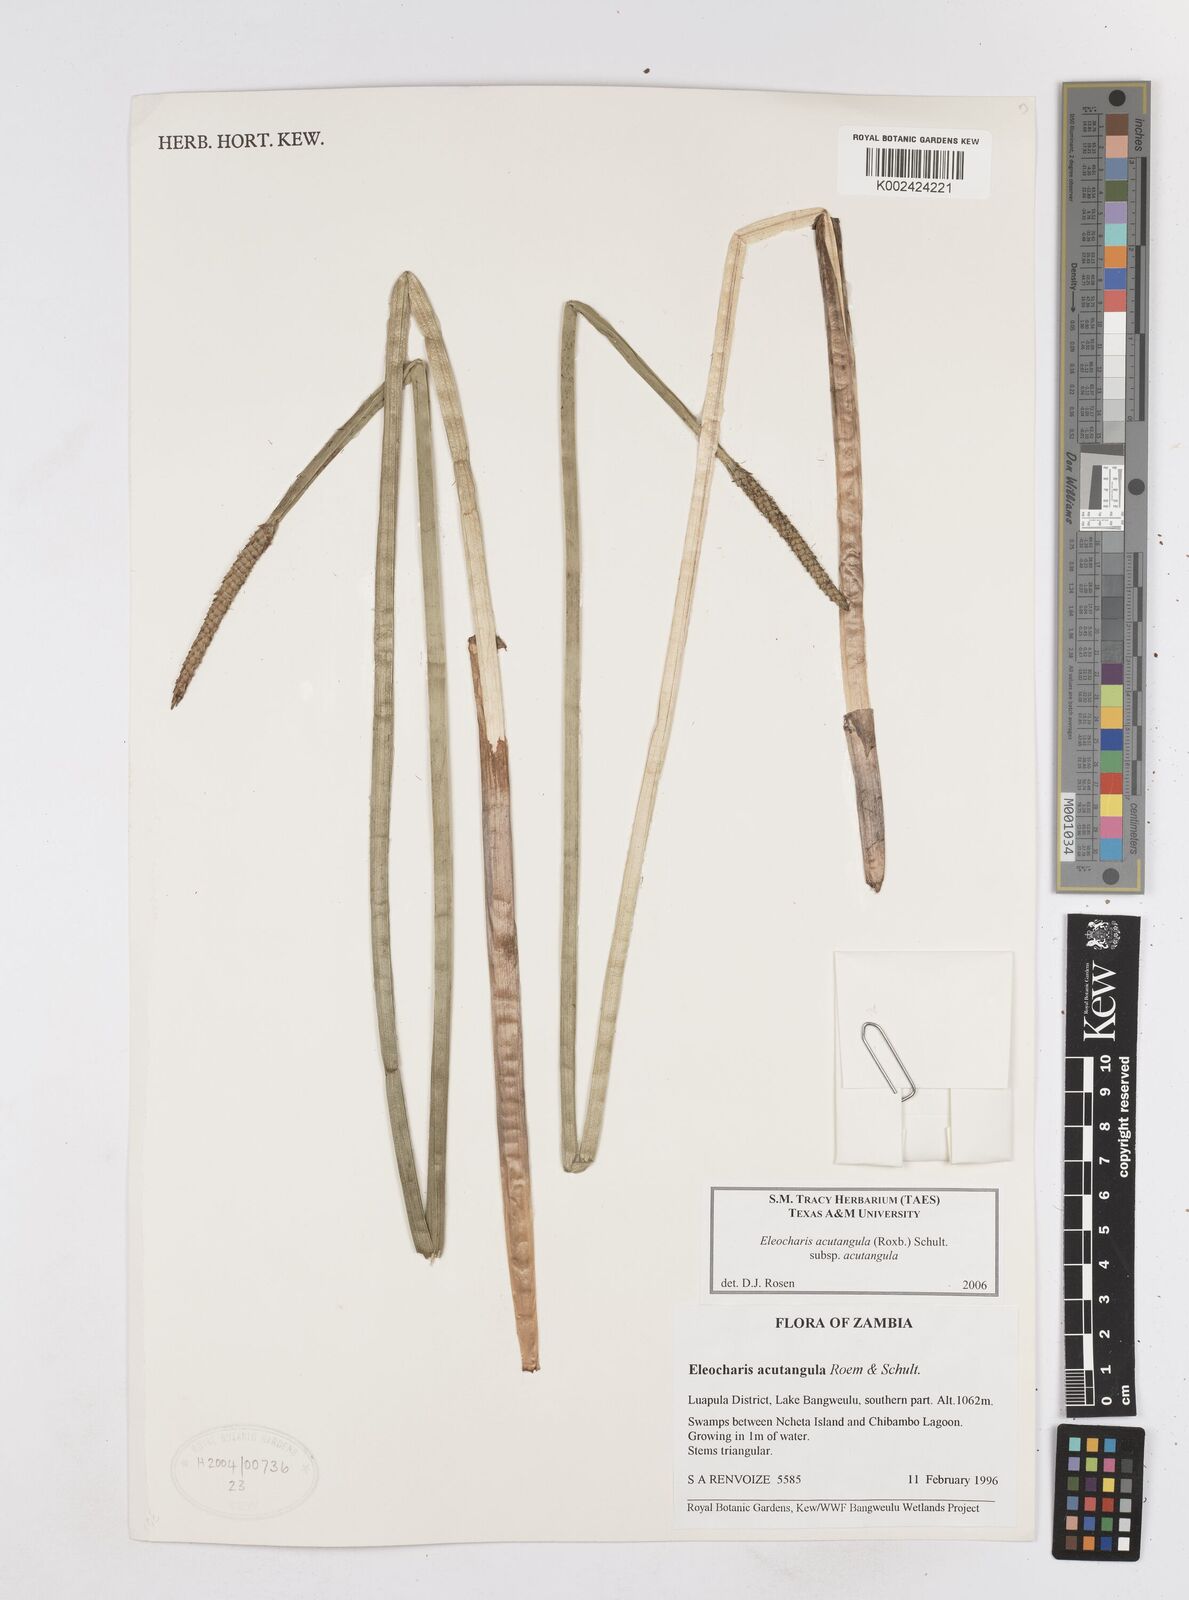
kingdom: Plantae
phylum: Tracheophyta
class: Liliopsida
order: Poales
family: Cyperaceae
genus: Eleocharis
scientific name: Eleocharis acutangula
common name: Acute spikerush
